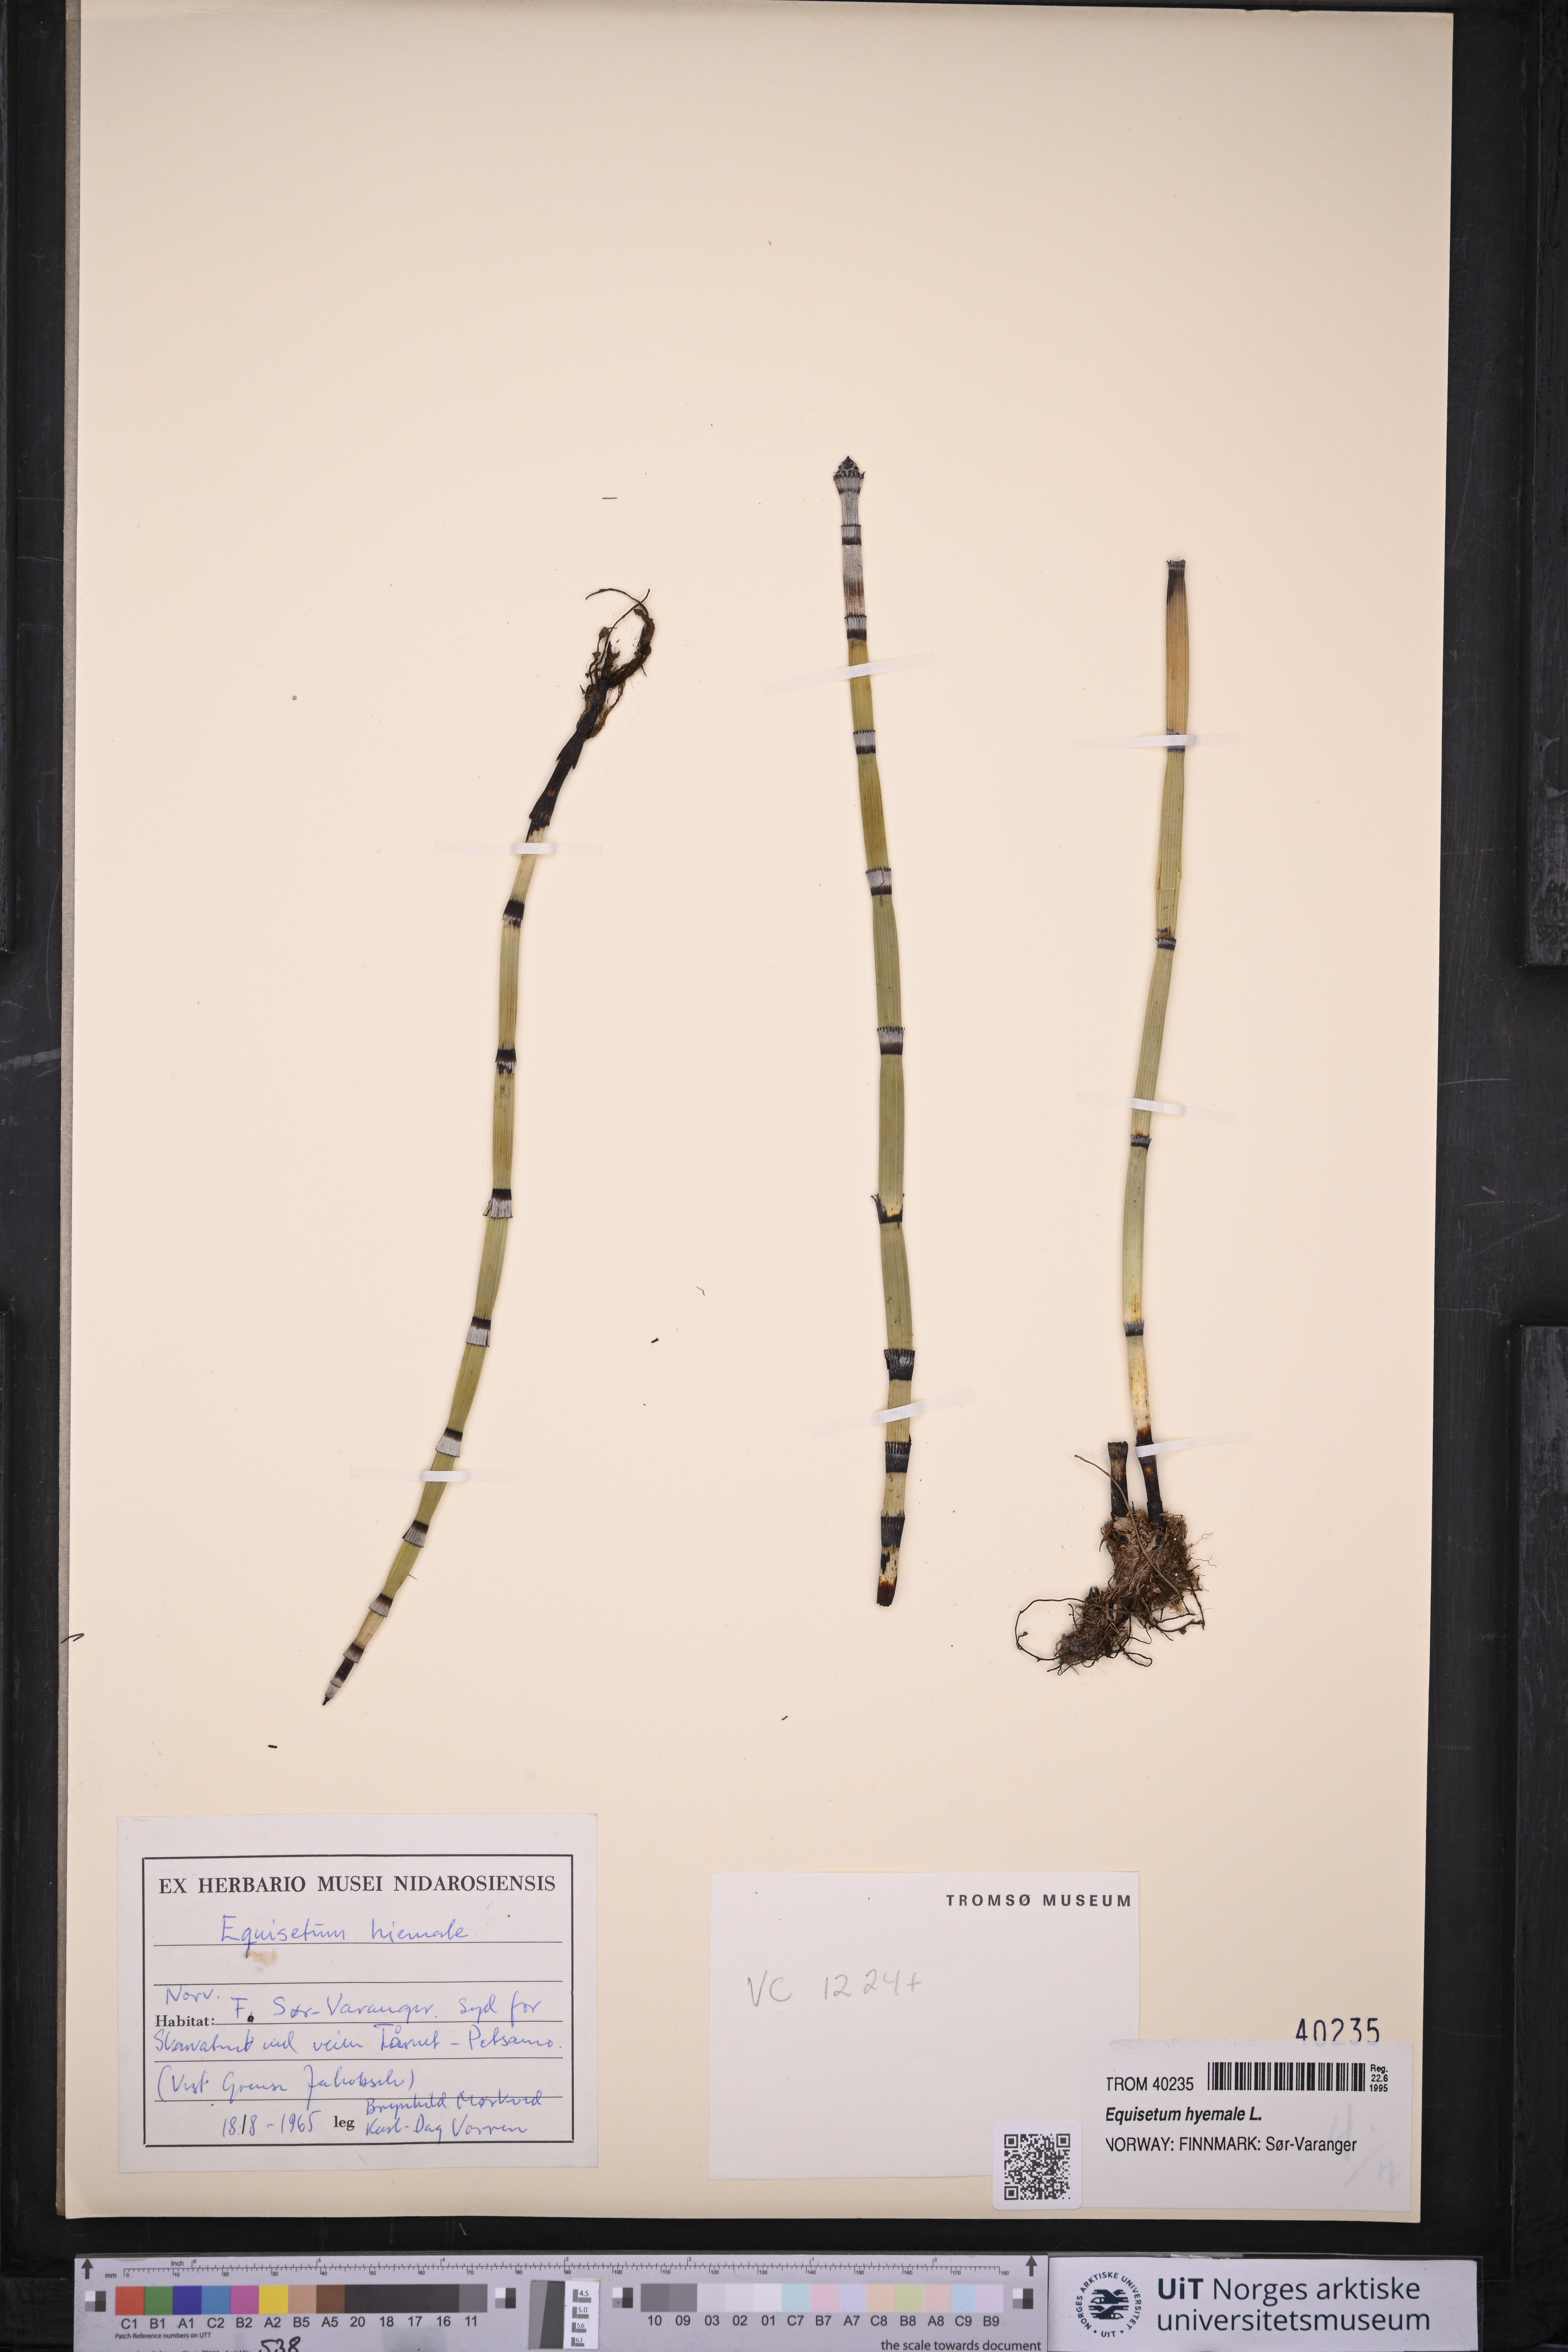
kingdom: Plantae
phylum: Tracheophyta
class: Polypodiopsida
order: Equisetales
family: Equisetaceae
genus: Equisetum
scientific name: Equisetum hyemale
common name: Rough horsetail
